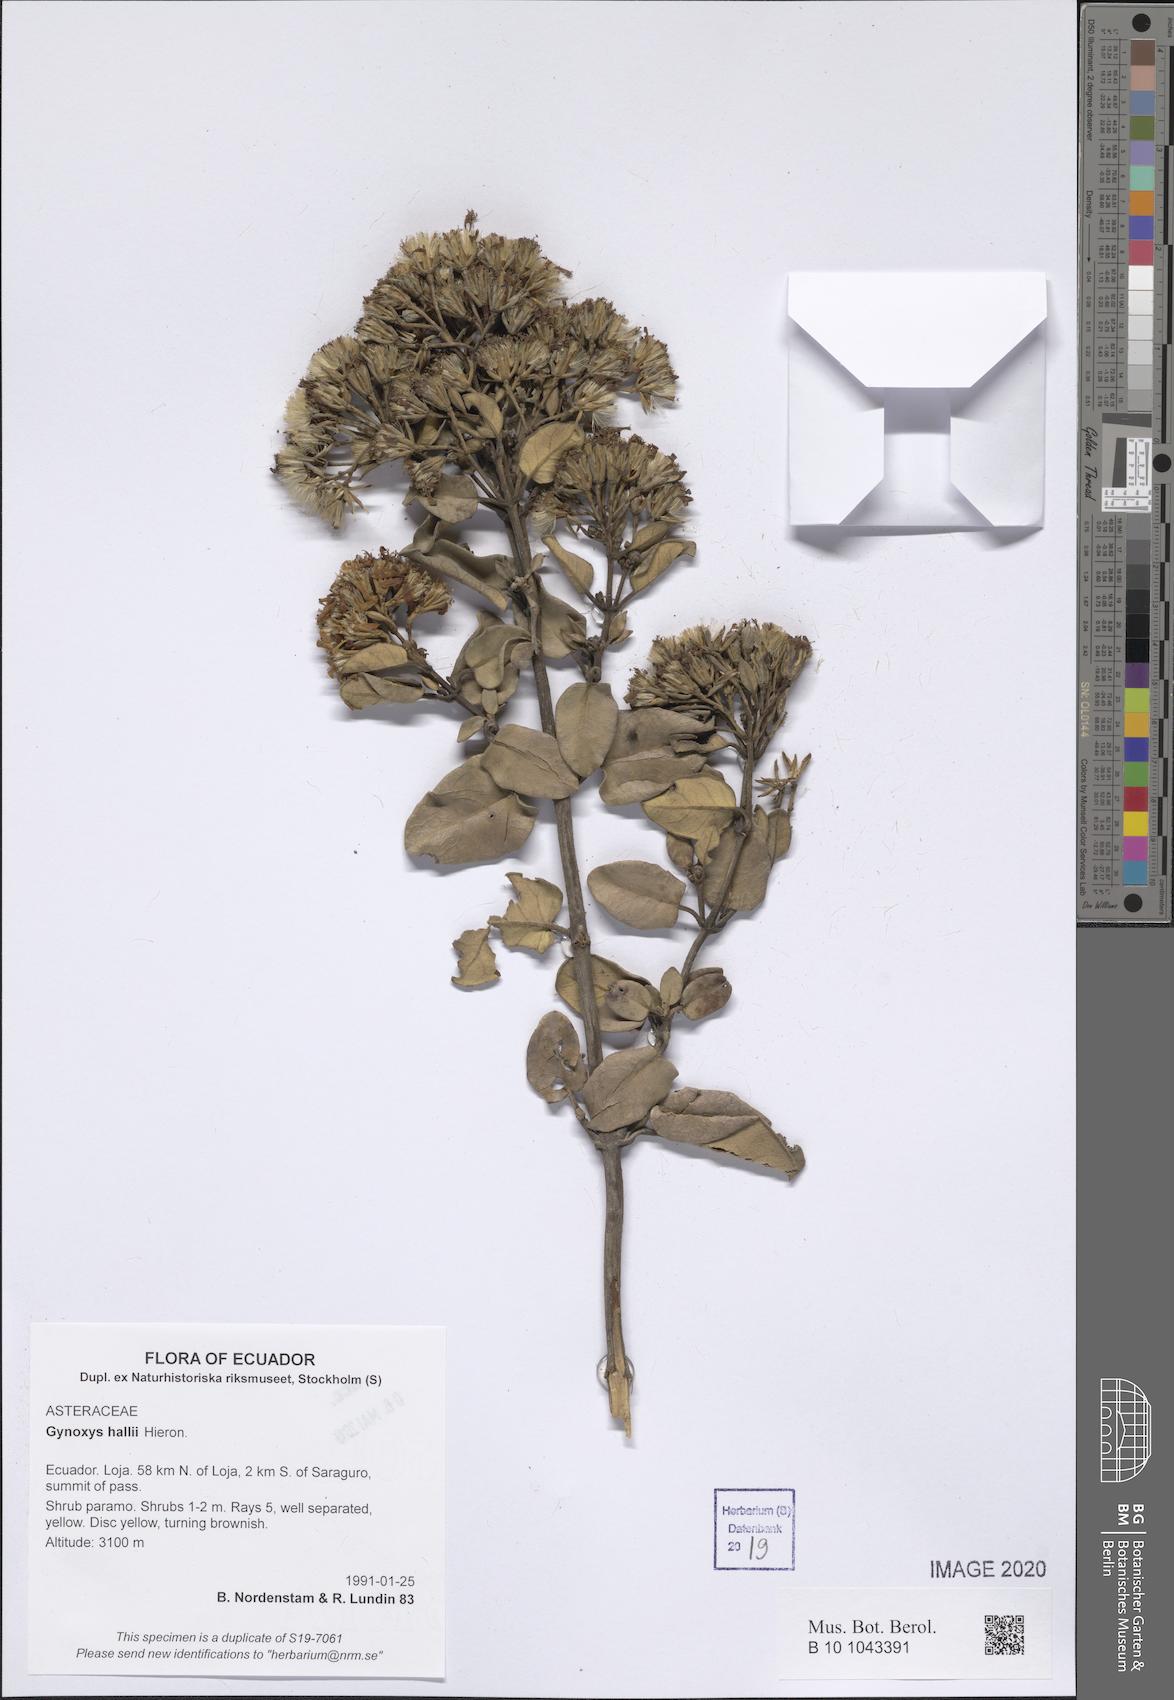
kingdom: Plantae
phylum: Tracheophyta
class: Magnoliopsida
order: Asterales
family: Asteraceae
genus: Gynoxys
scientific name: Gynoxys hallii
